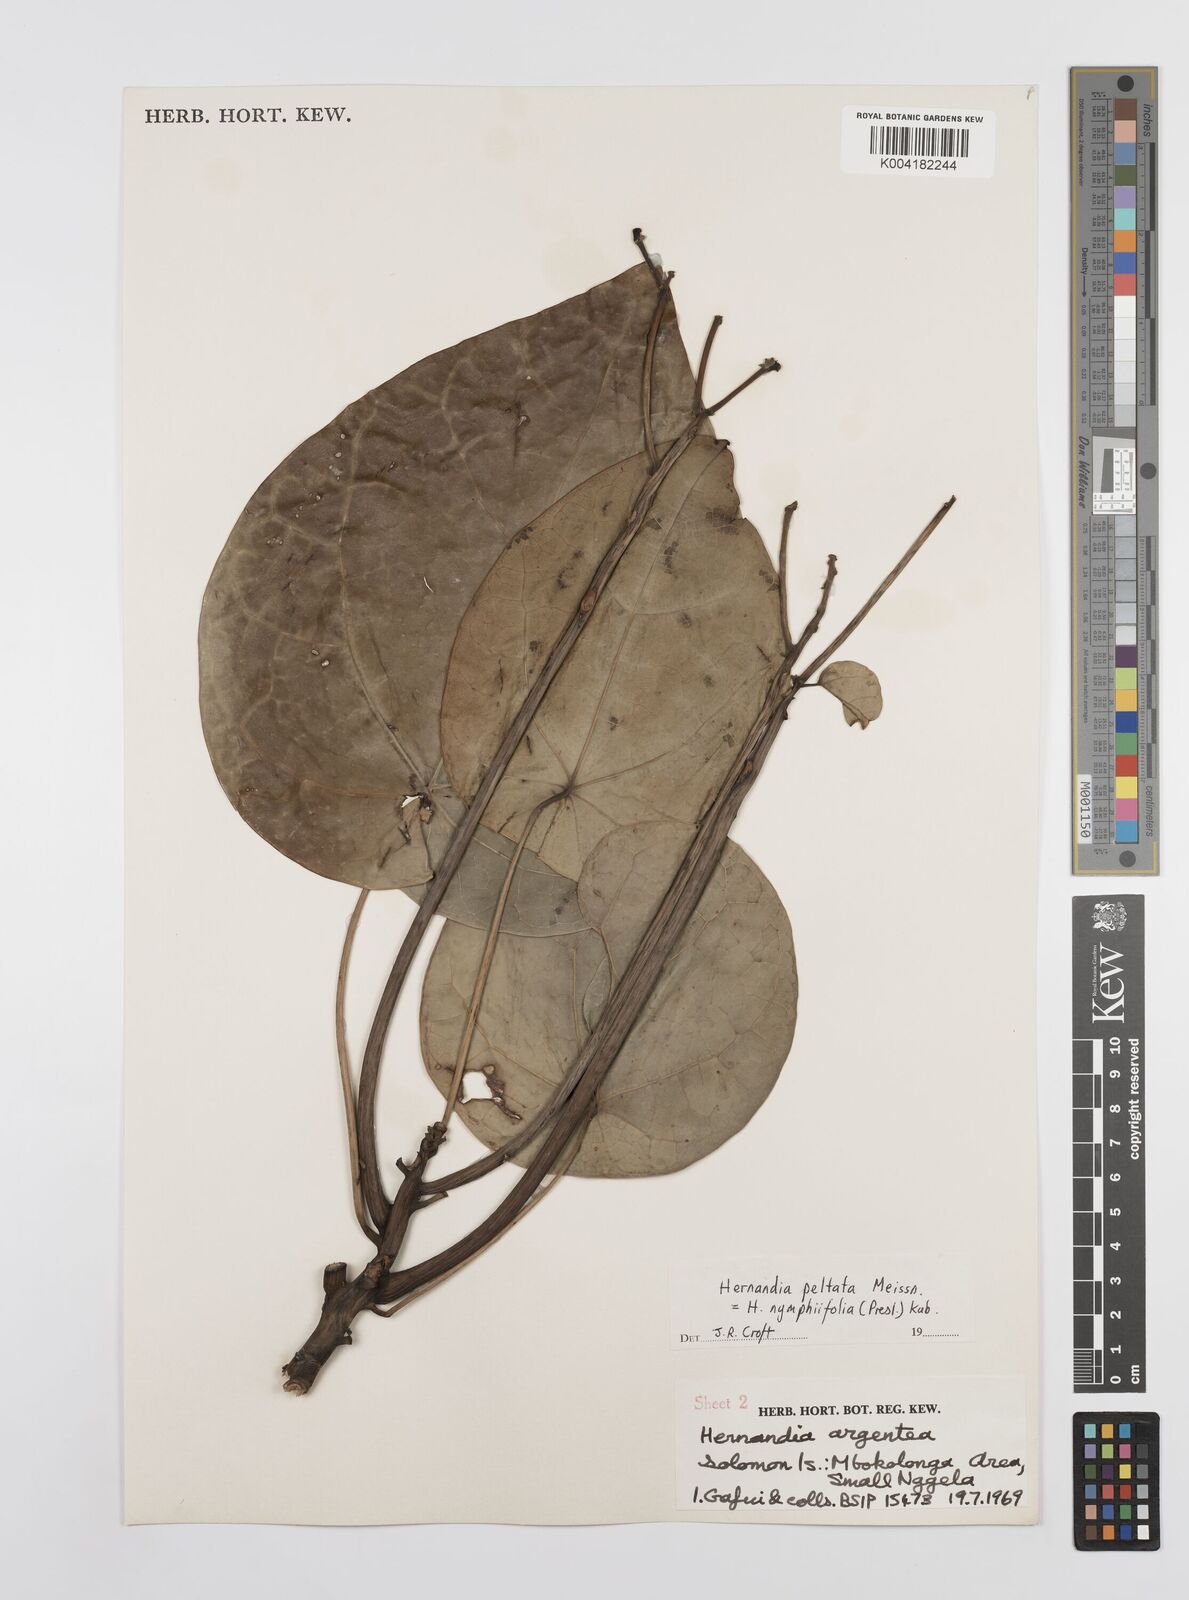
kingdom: Plantae
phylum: Tracheophyta
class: Magnoliopsida
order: Laurales
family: Hernandiaceae
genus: Hernandia
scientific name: Hernandia nymphaeifolia
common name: Sea hearse
